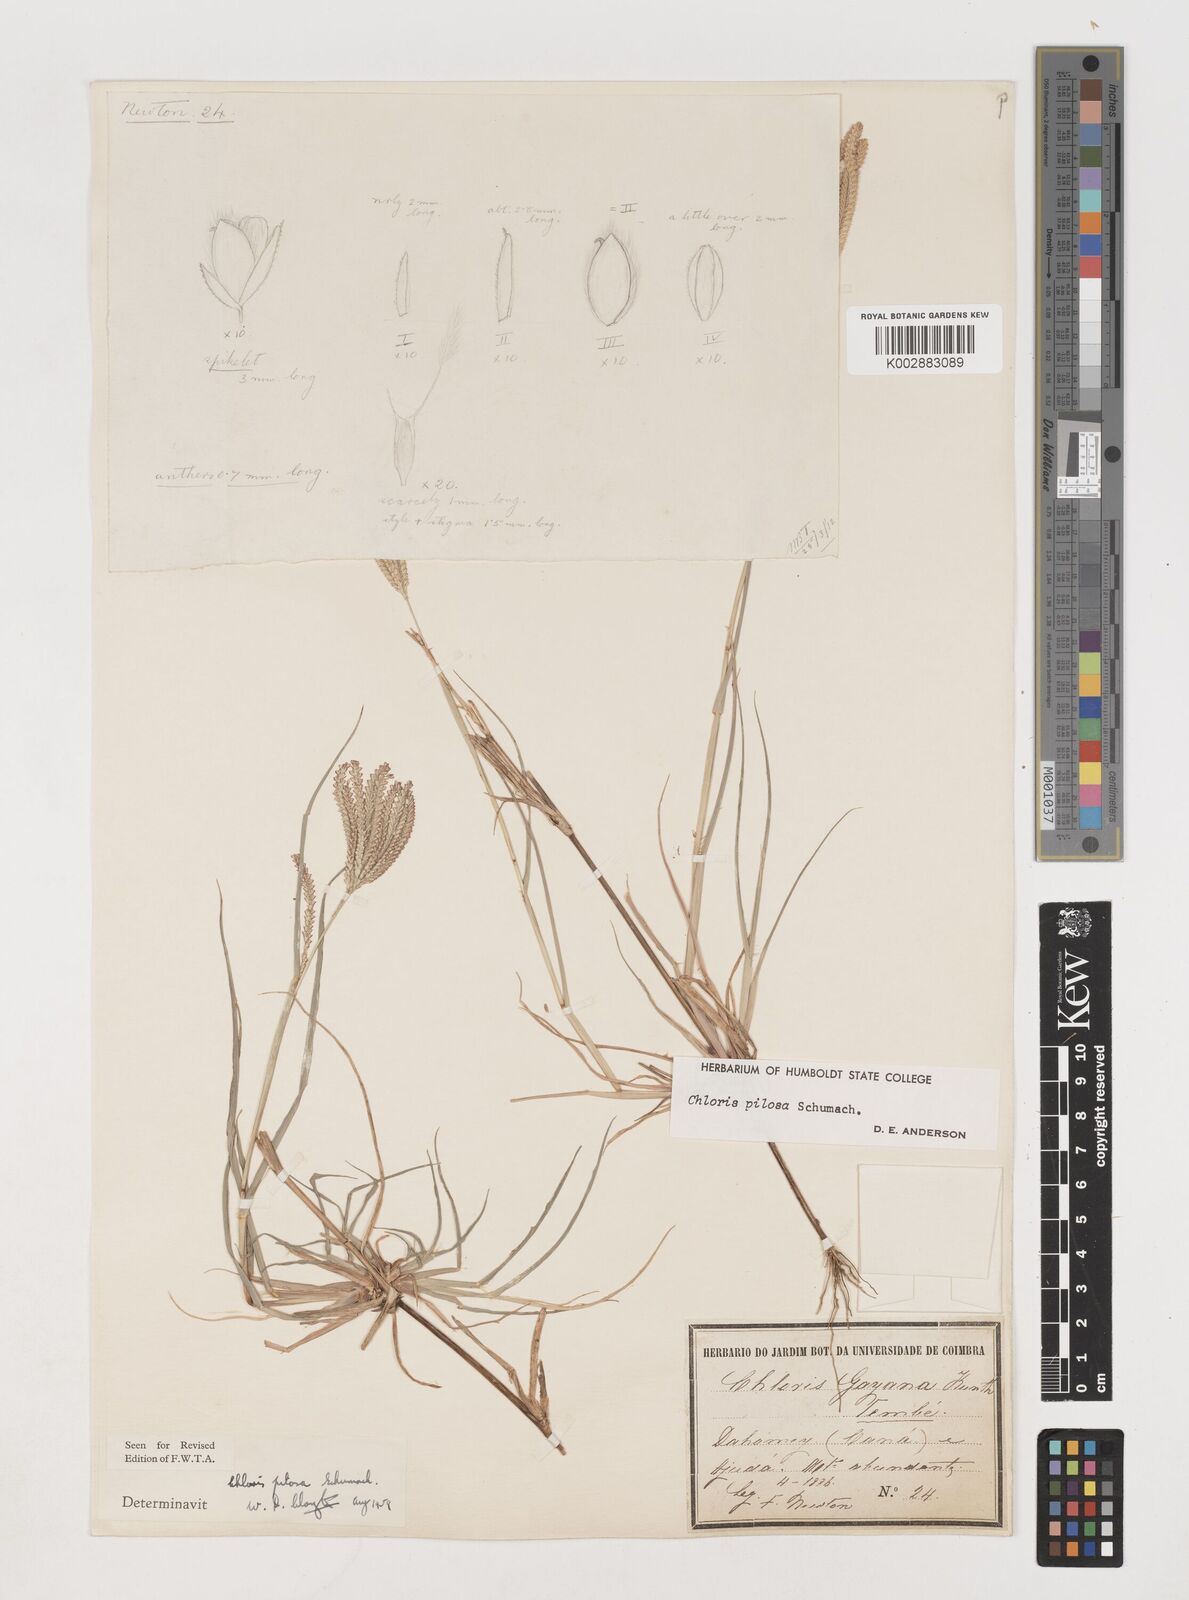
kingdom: Plantae
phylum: Tracheophyta
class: Liliopsida
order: Poales
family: Poaceae
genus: Chloris
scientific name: Chloris pilosa
